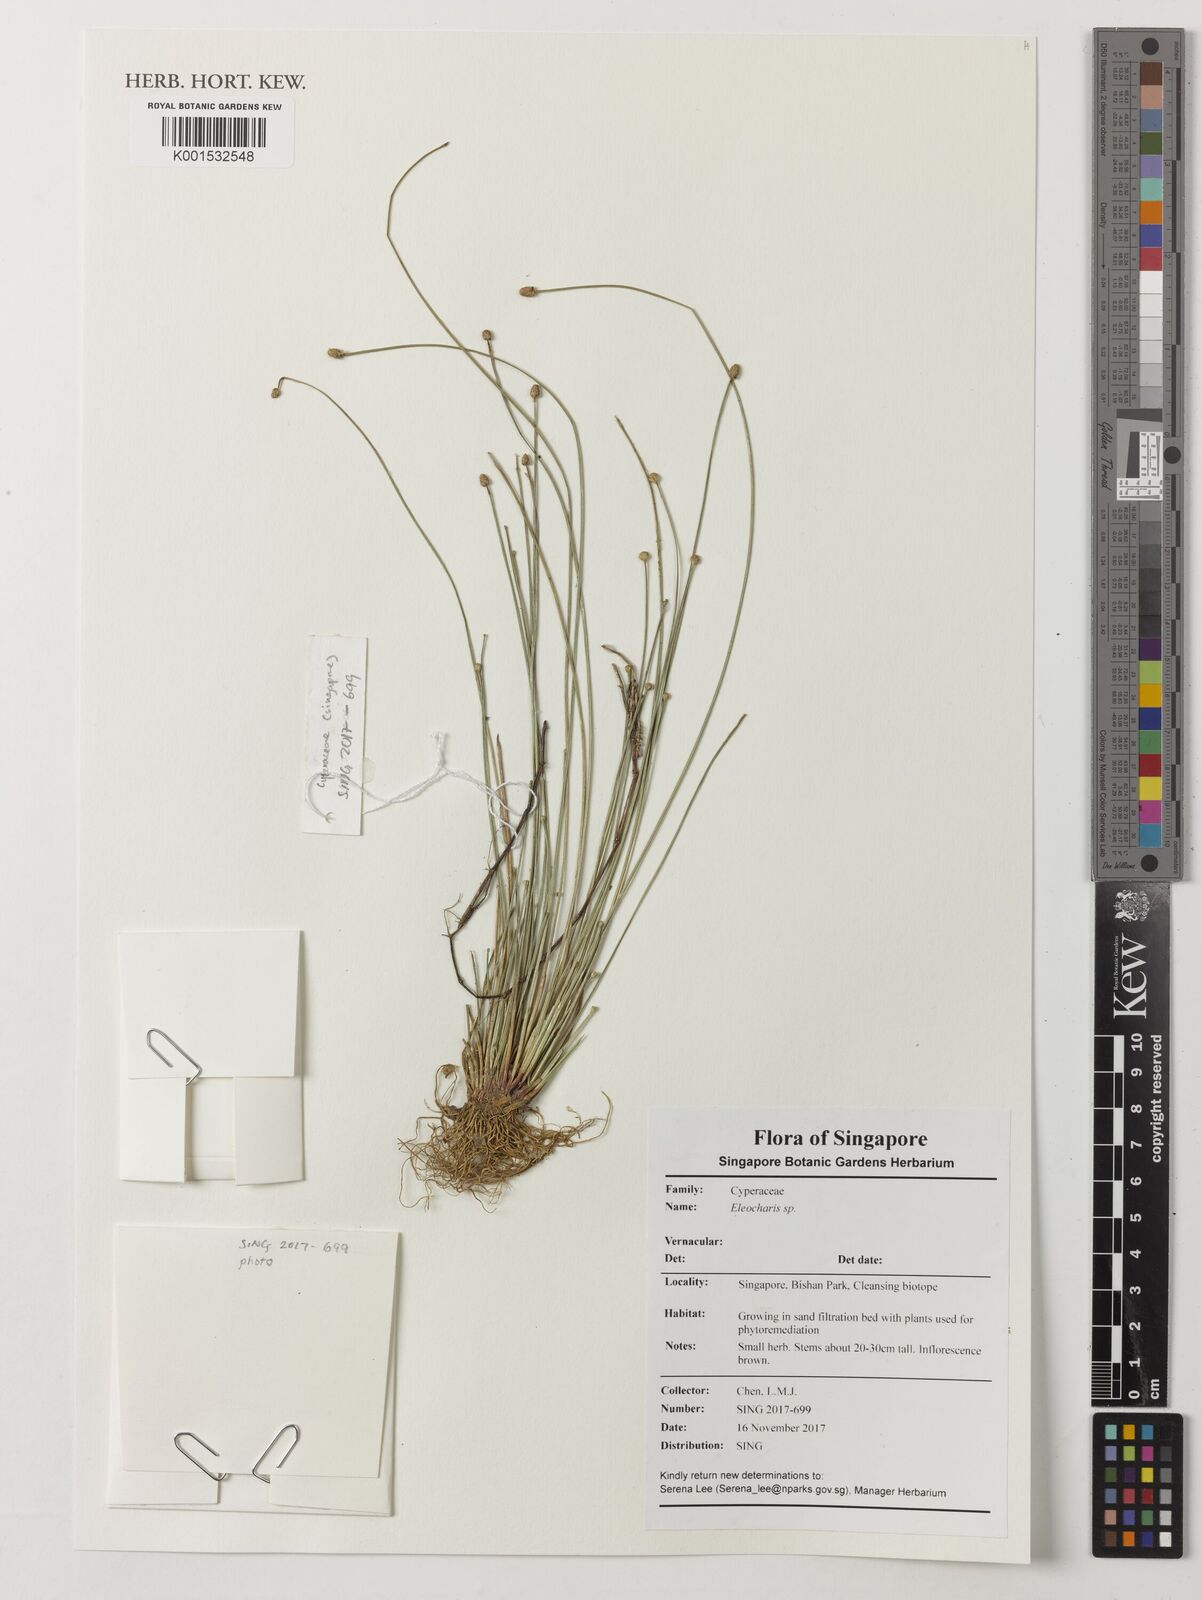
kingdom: Plantae
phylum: Tracheophyta
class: Liliopsida
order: Poales
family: Cyperaceae
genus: Eleocharis
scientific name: Eleocharis
